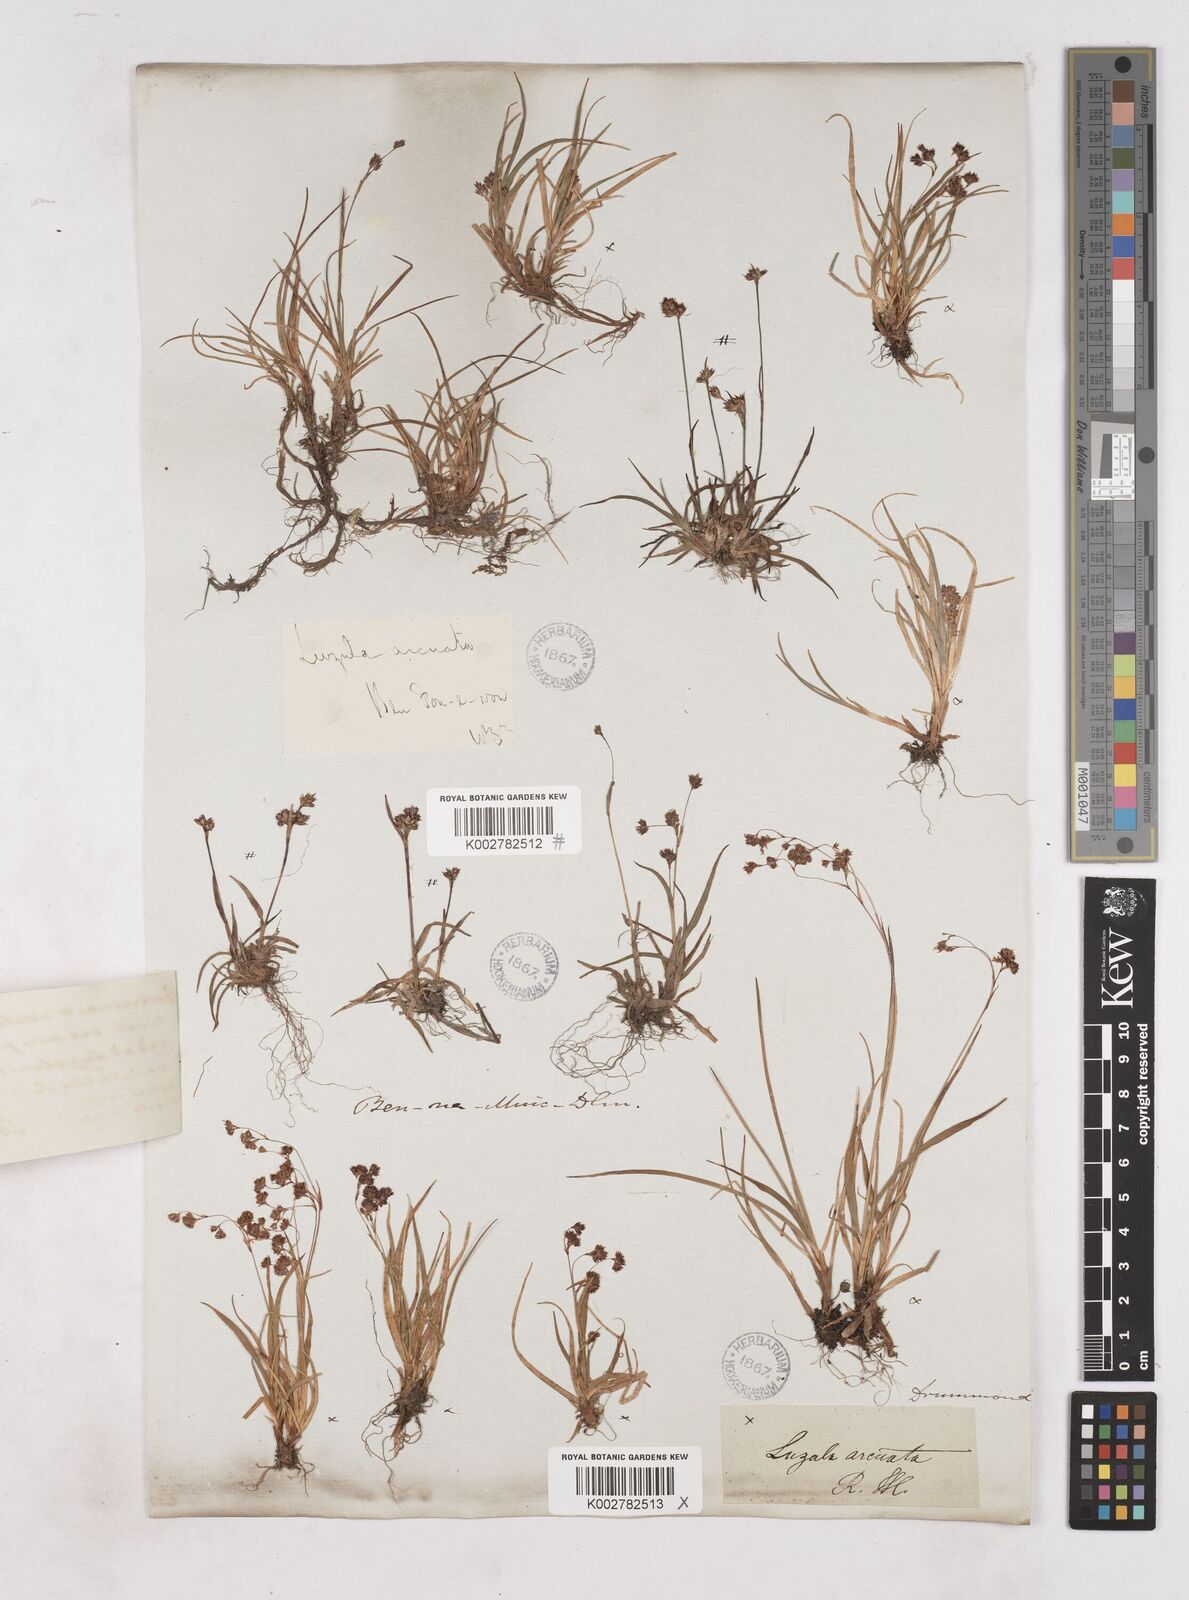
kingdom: Plantae
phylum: Tracheophyta
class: Liliopsida
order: Poales
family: Juncaceae
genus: Luzula
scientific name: Luzula arcuata
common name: Curved wood-rush
